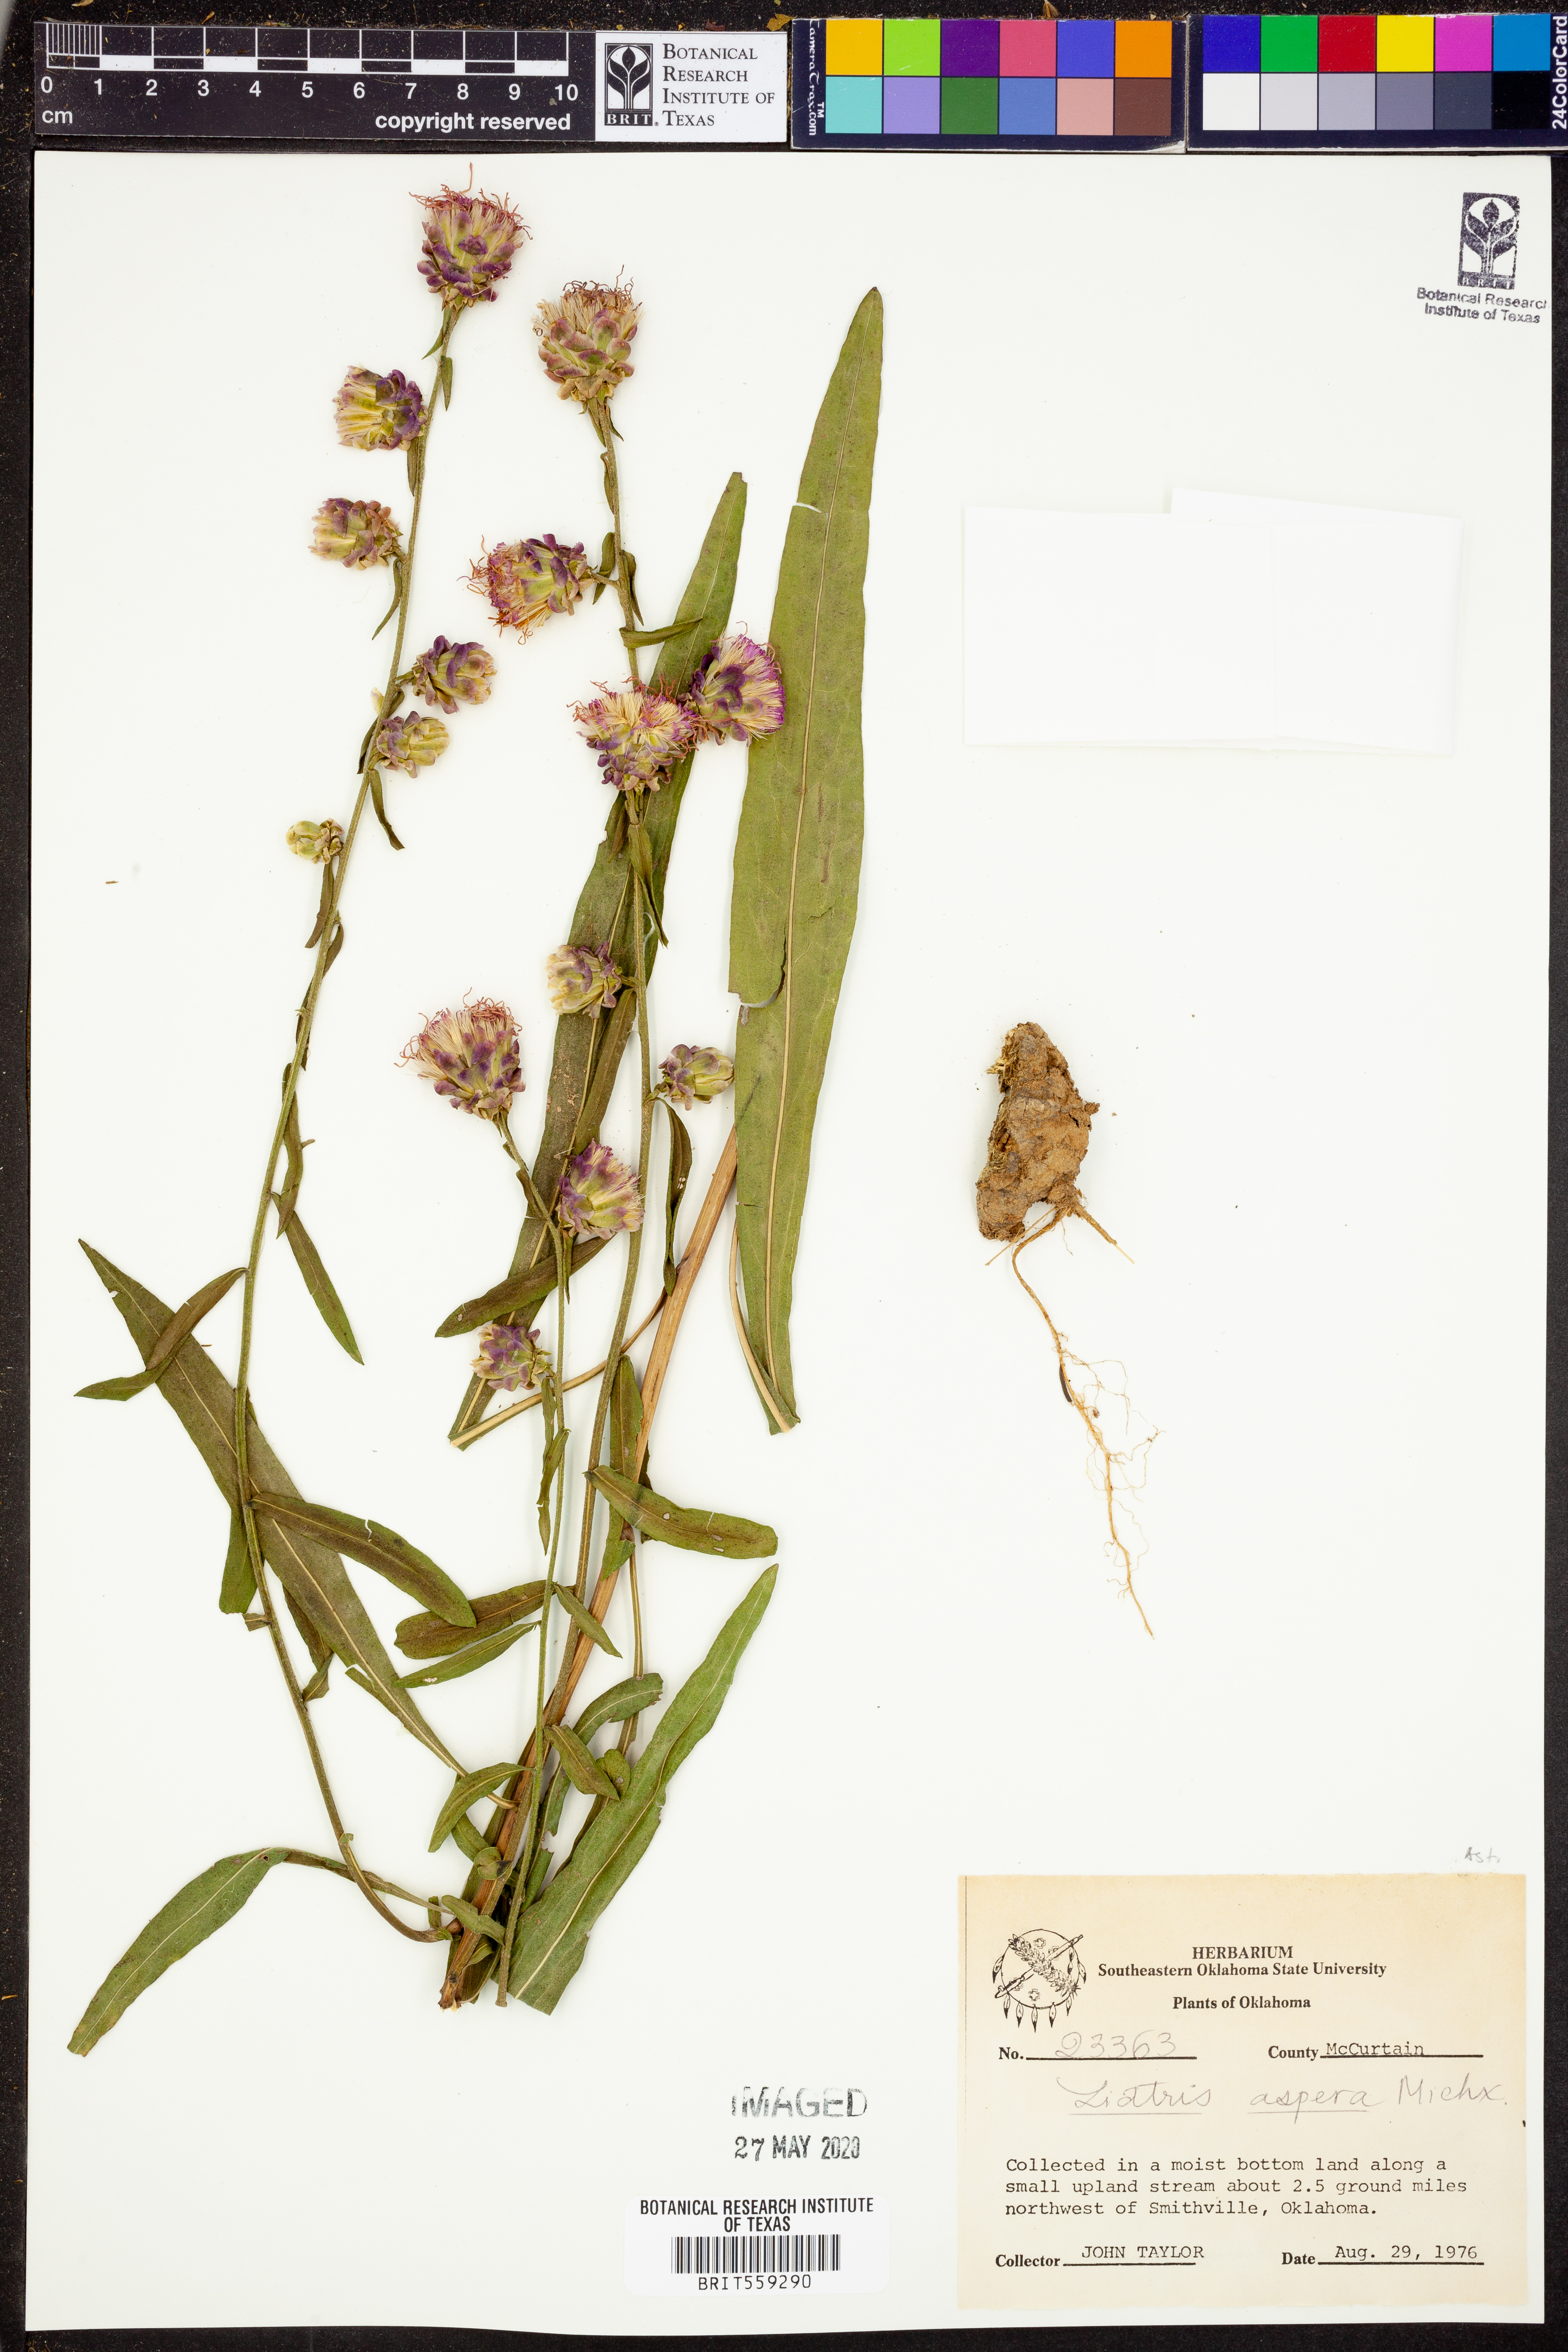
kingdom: Plantae
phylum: Tracheophyta
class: Magnoliopsida
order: Asterales
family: Asteraceae
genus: Liatris
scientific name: Liatris aspera
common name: Lacerate blazing-star
